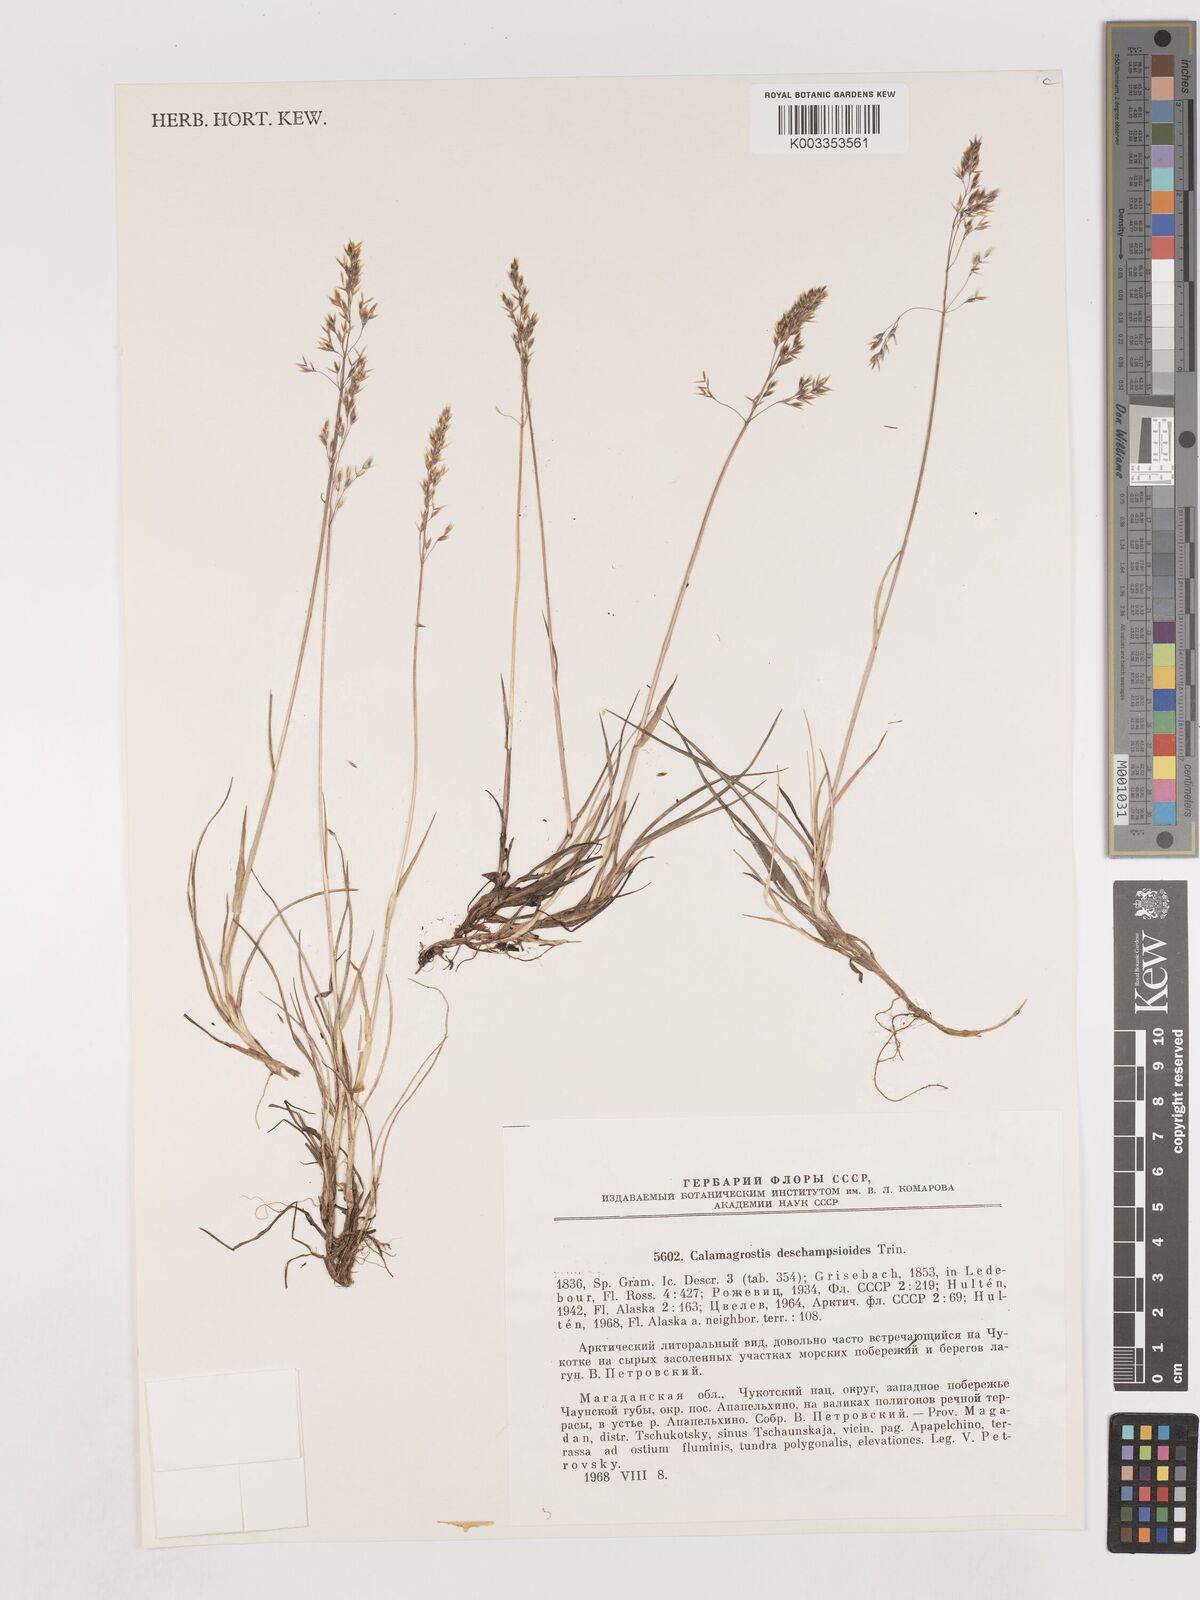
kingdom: Plantae
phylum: Tracheophyta
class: Liliopsida
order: Poales
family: Poaceae
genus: Calamagrostis
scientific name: Calamagrostis deschampsioides
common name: Circumpolar reedgrass
